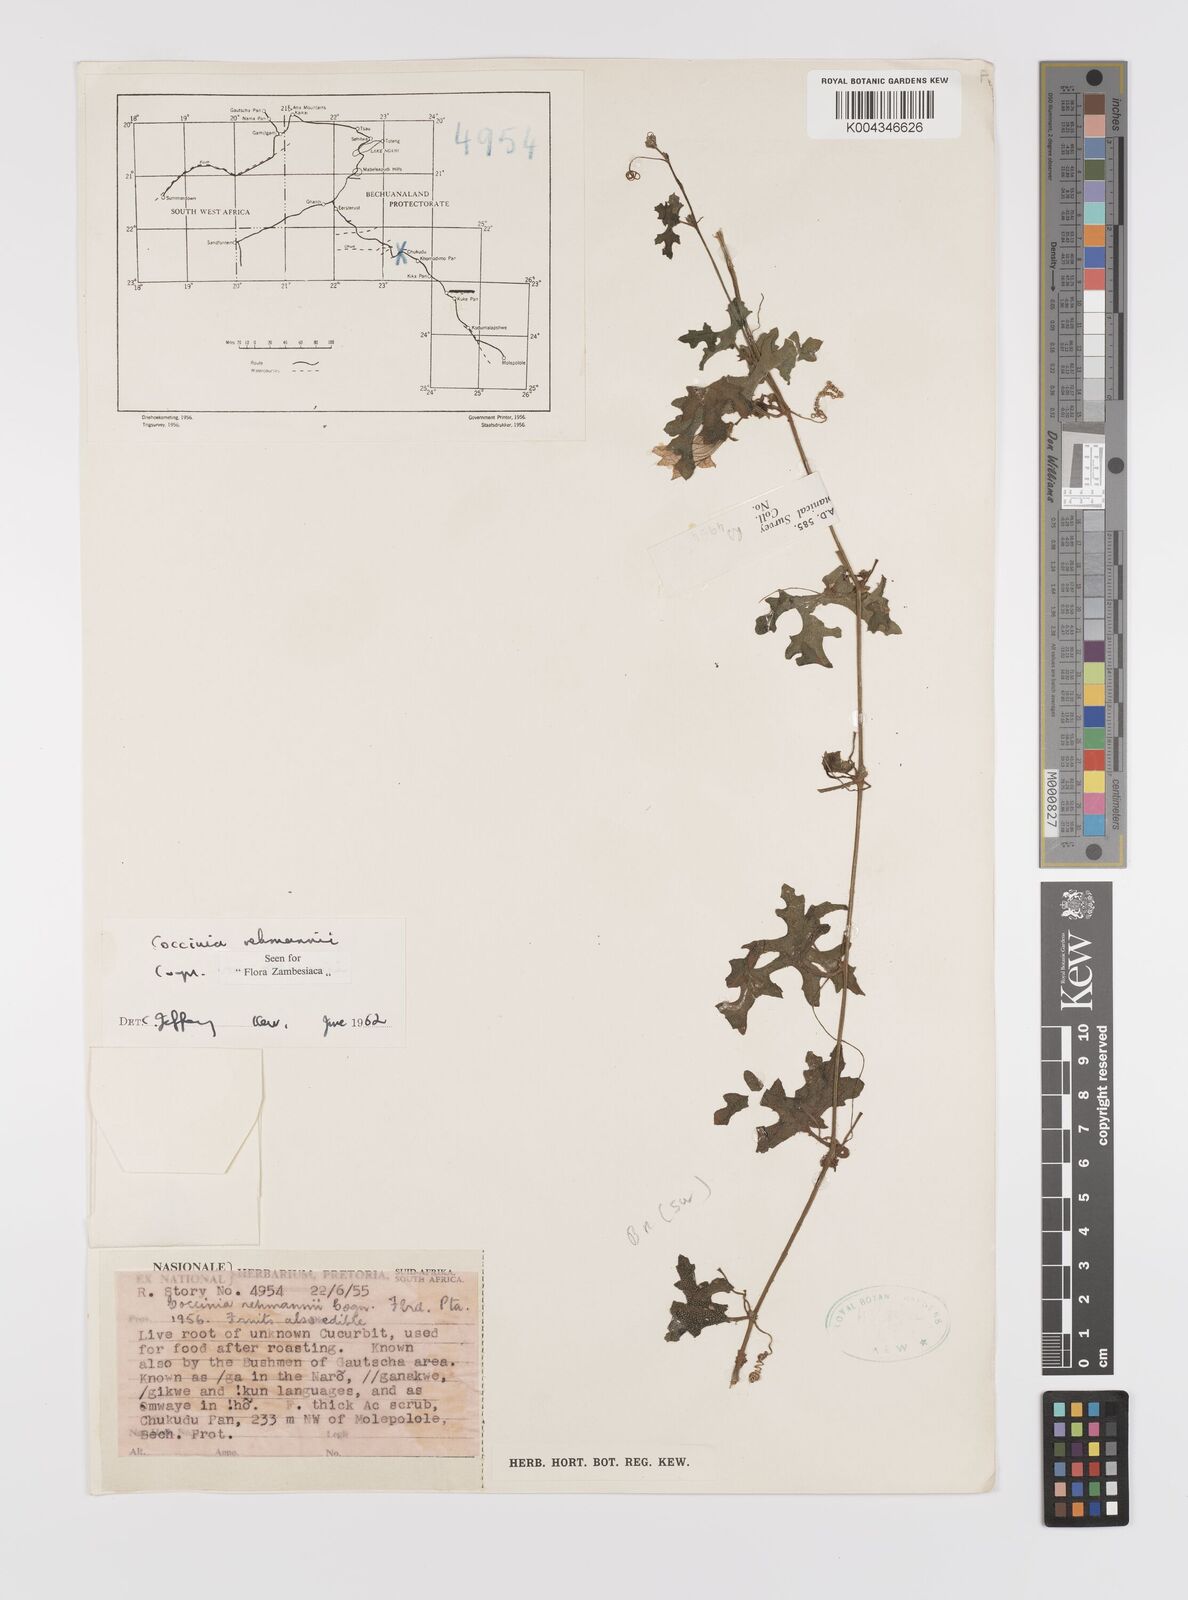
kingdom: Plantae
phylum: Tracheophyta
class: Magnoliopsida
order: Cucurbitales
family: Cucurbitaceae
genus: Coccinia
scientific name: Coccinia rehmannii
